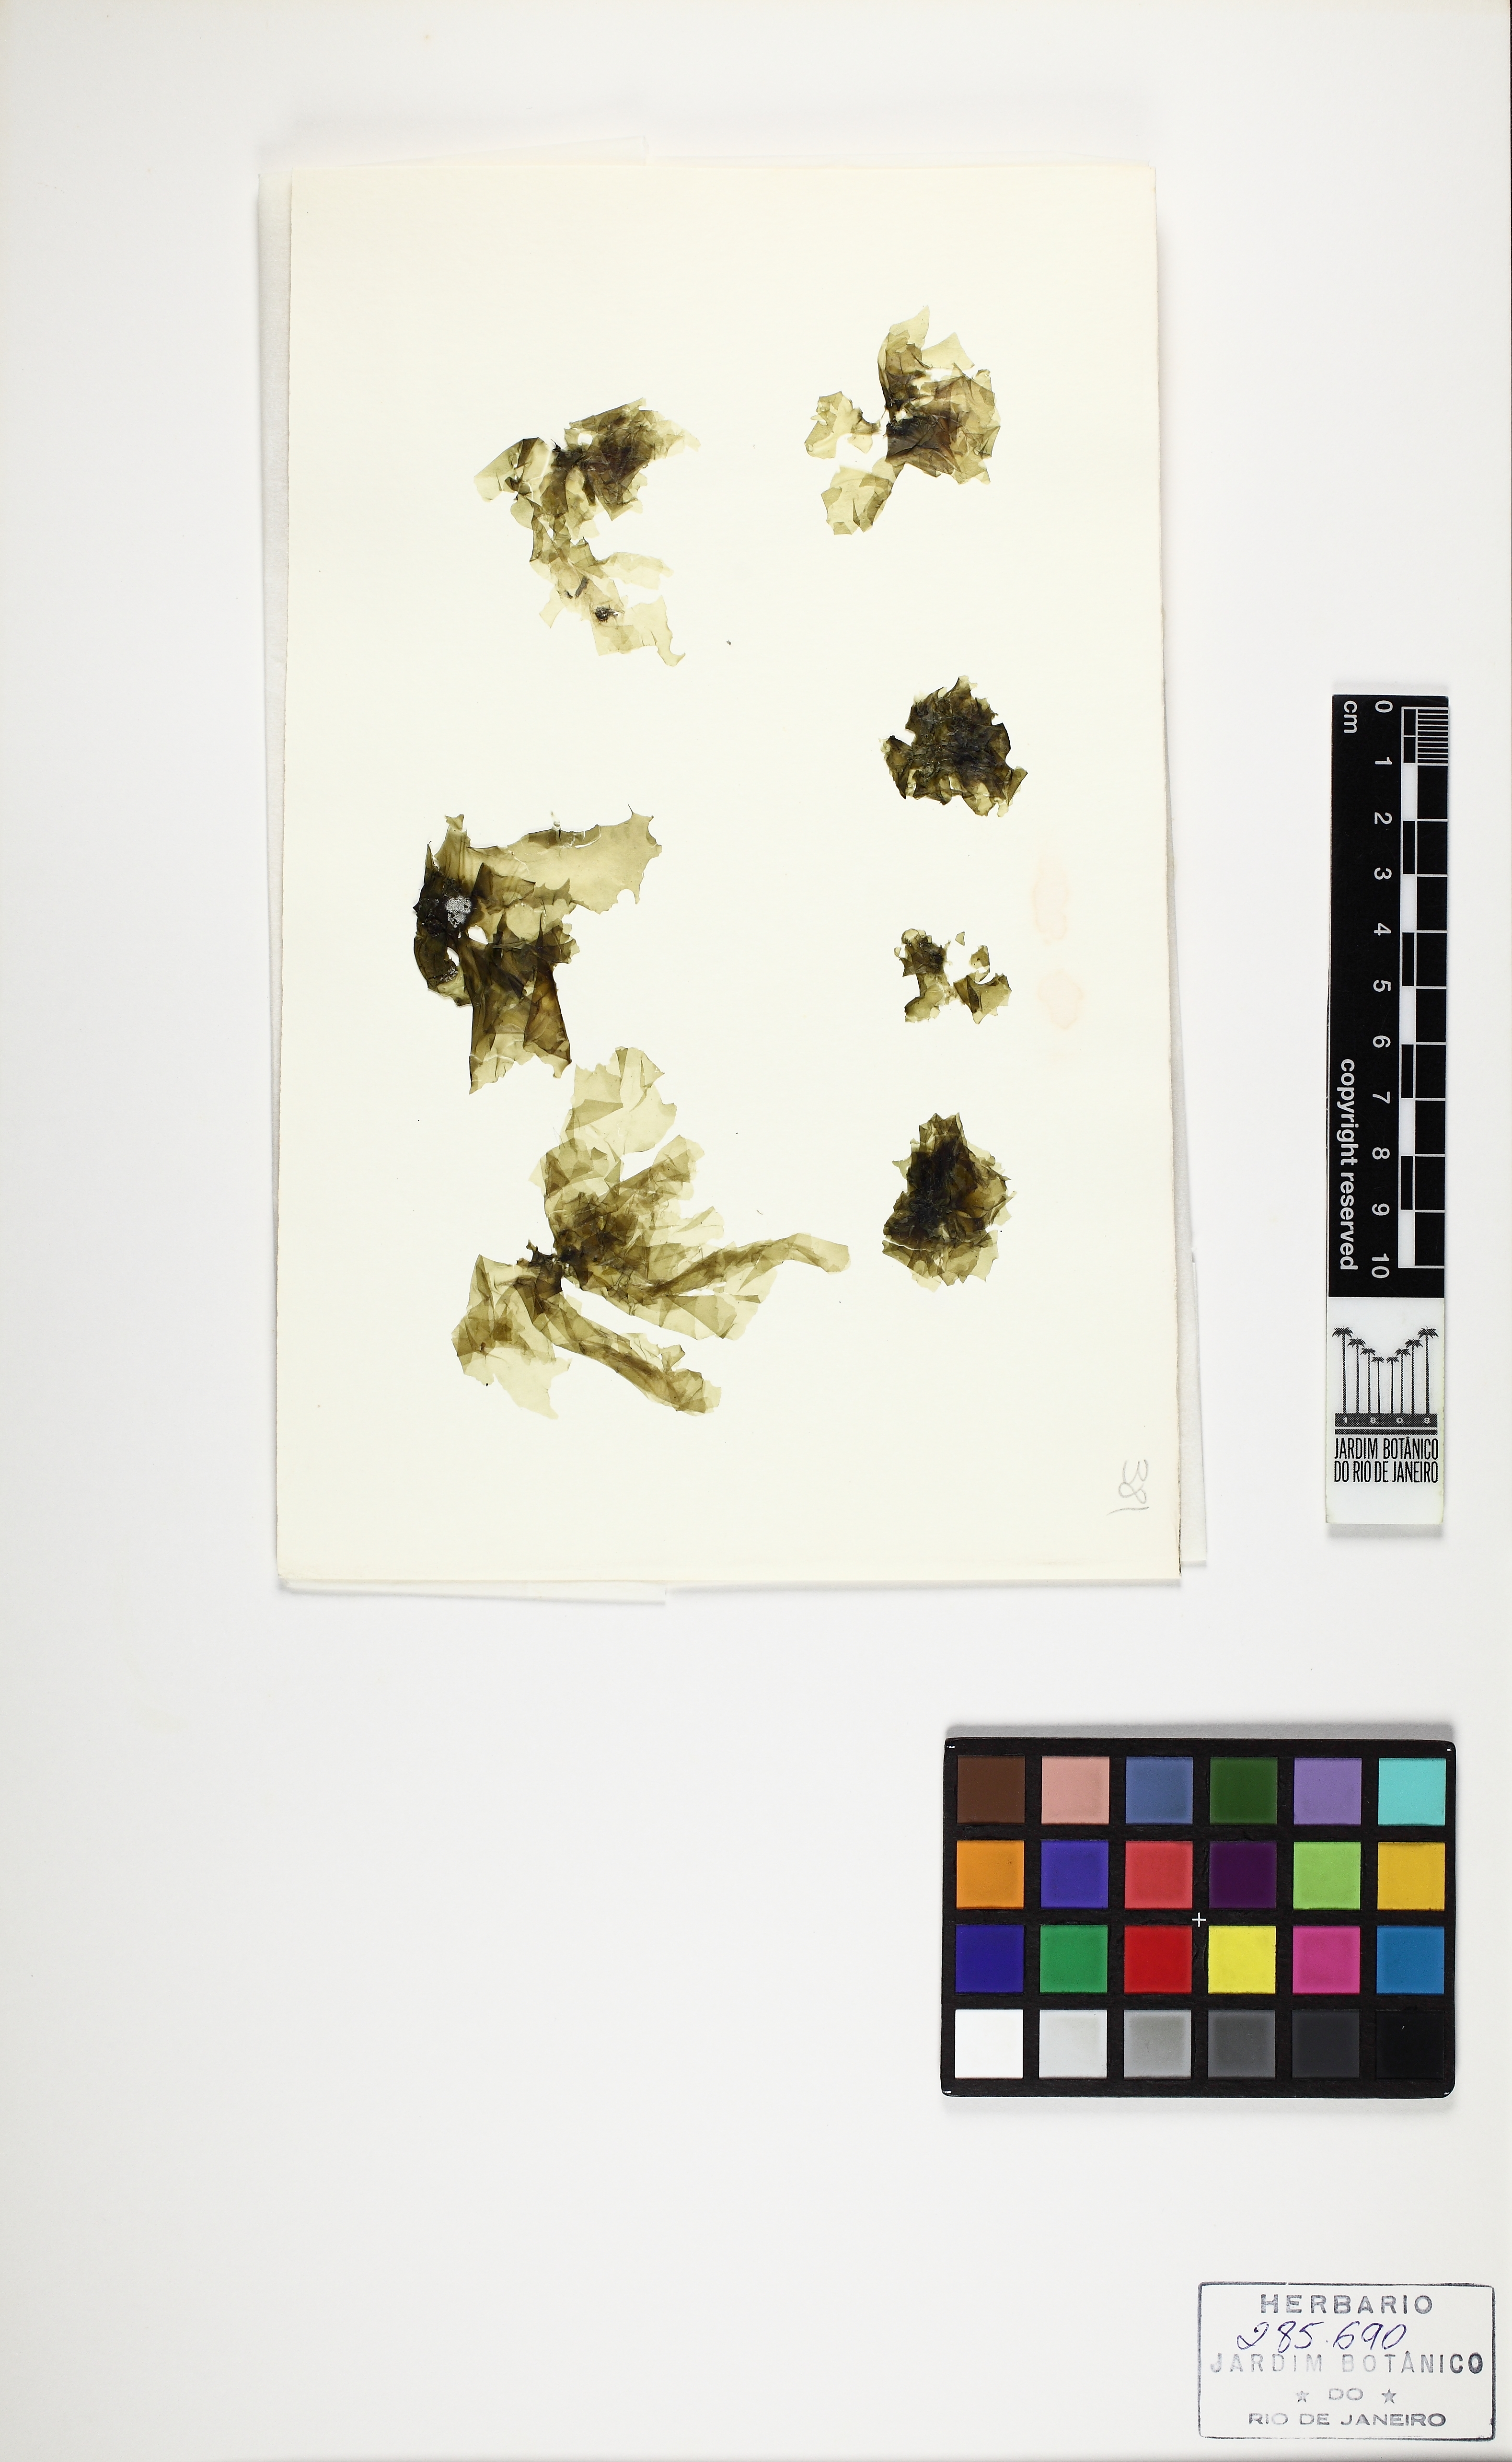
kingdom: Plantae
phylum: Chlorophyta
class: Ulvophyceae
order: Ulvales
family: Ulvaceae
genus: Ulva
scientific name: Ulva rigida
